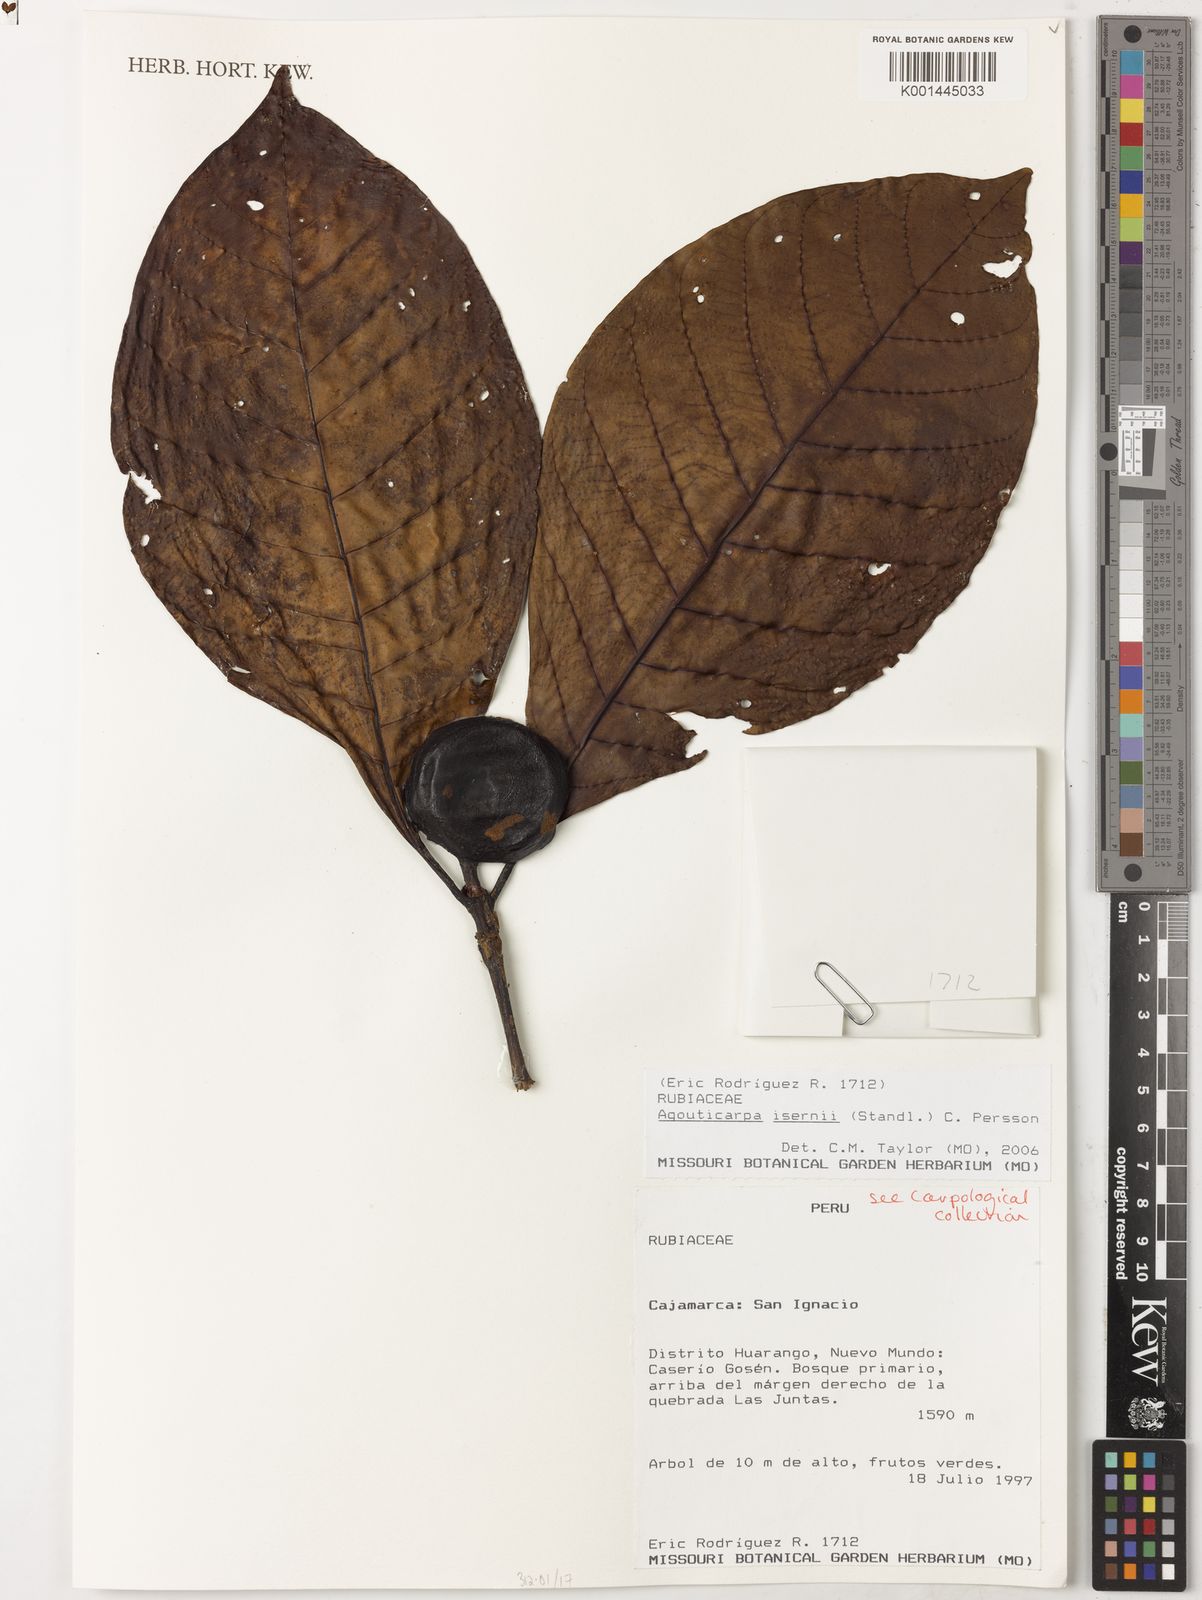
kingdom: Plantae
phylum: Tracheophyta
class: Magnoliopsida
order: Gentianales
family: Rubiaceae
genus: Agouticarpa
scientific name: Agouticarpa isernii
